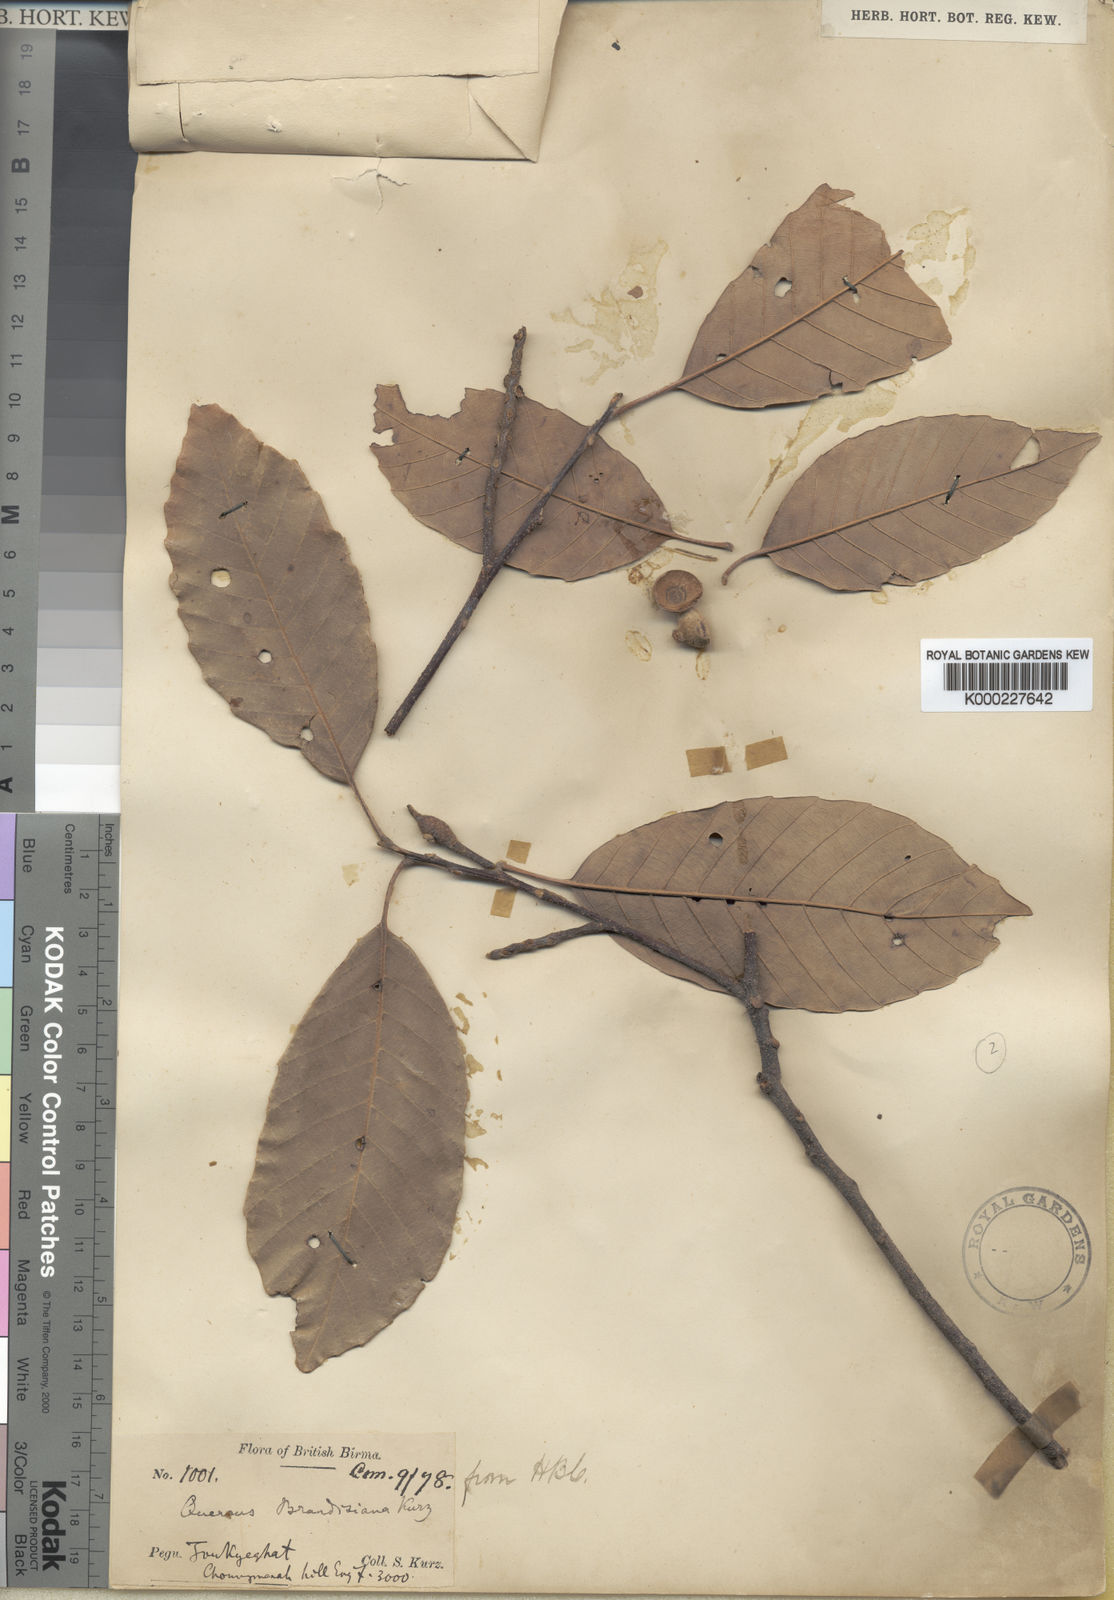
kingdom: Plantae
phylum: Tracheophyta
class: Magnoliopsida
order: Fagales
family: Fagaceae
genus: Quercus
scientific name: Quercus brandisiana
